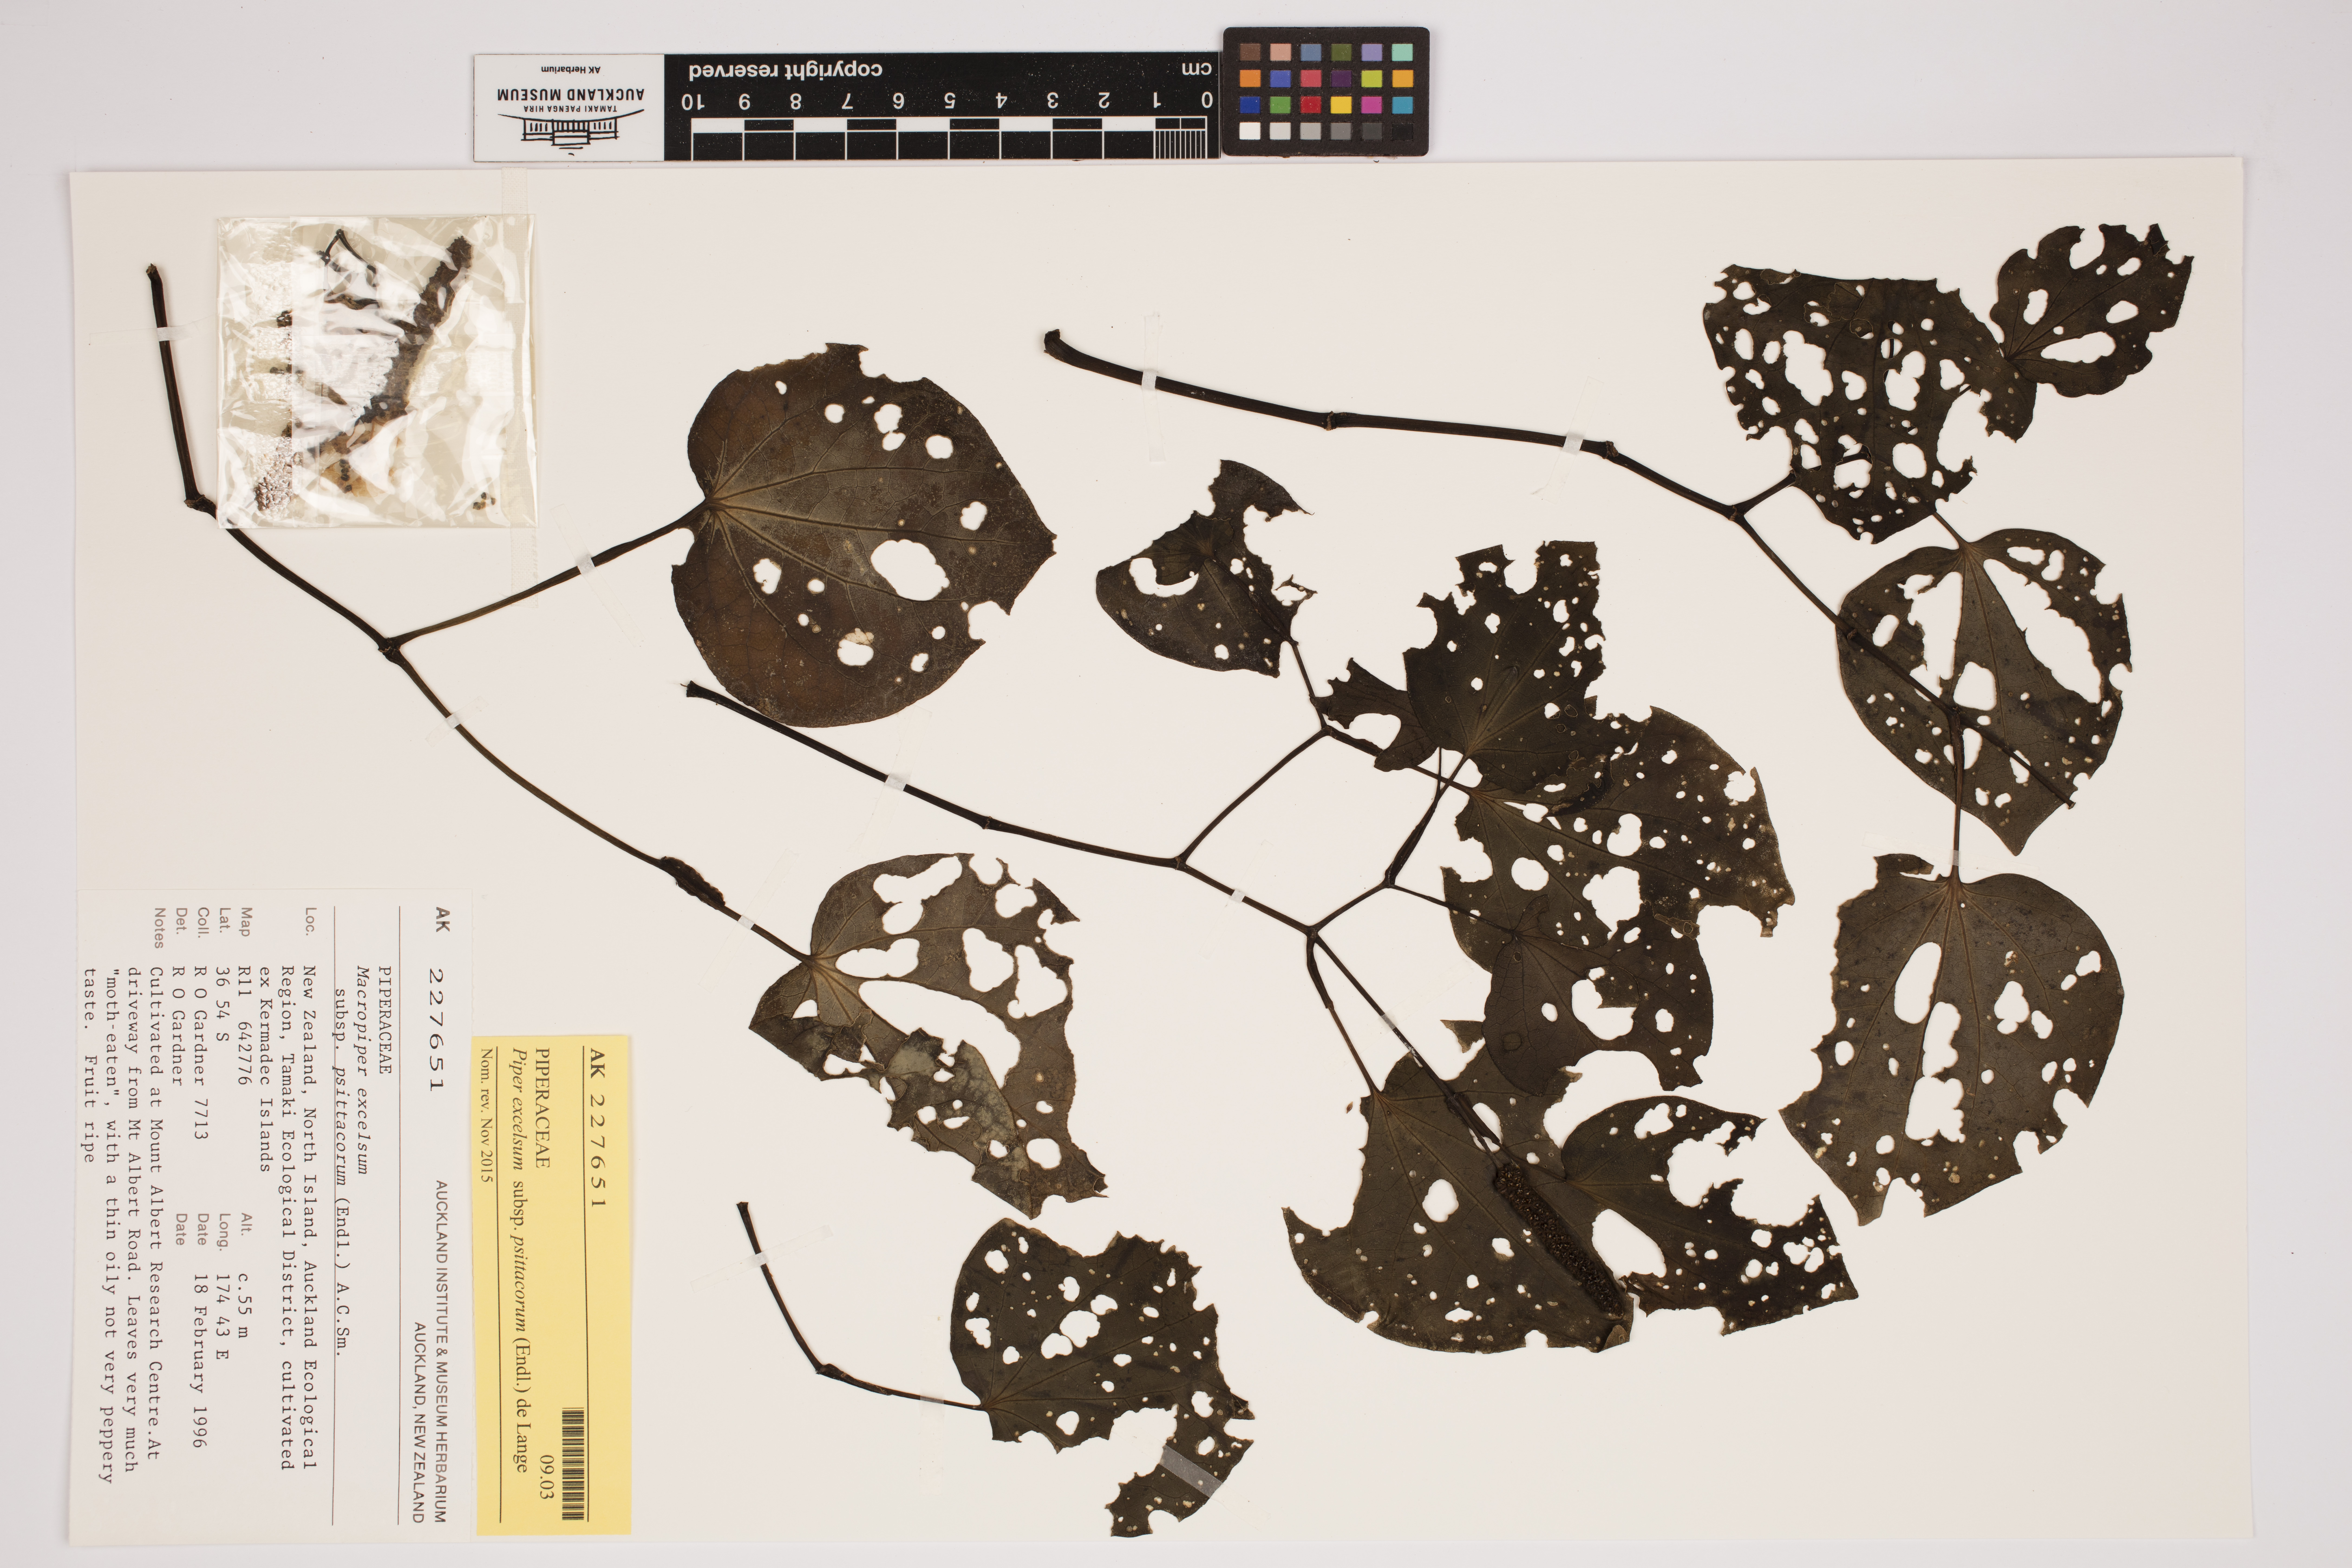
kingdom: Plantae
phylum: Tracheophyta
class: Magnoliopsida
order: Piperales
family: Piperaceae
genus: Macropiper
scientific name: Macropiper excelsum
